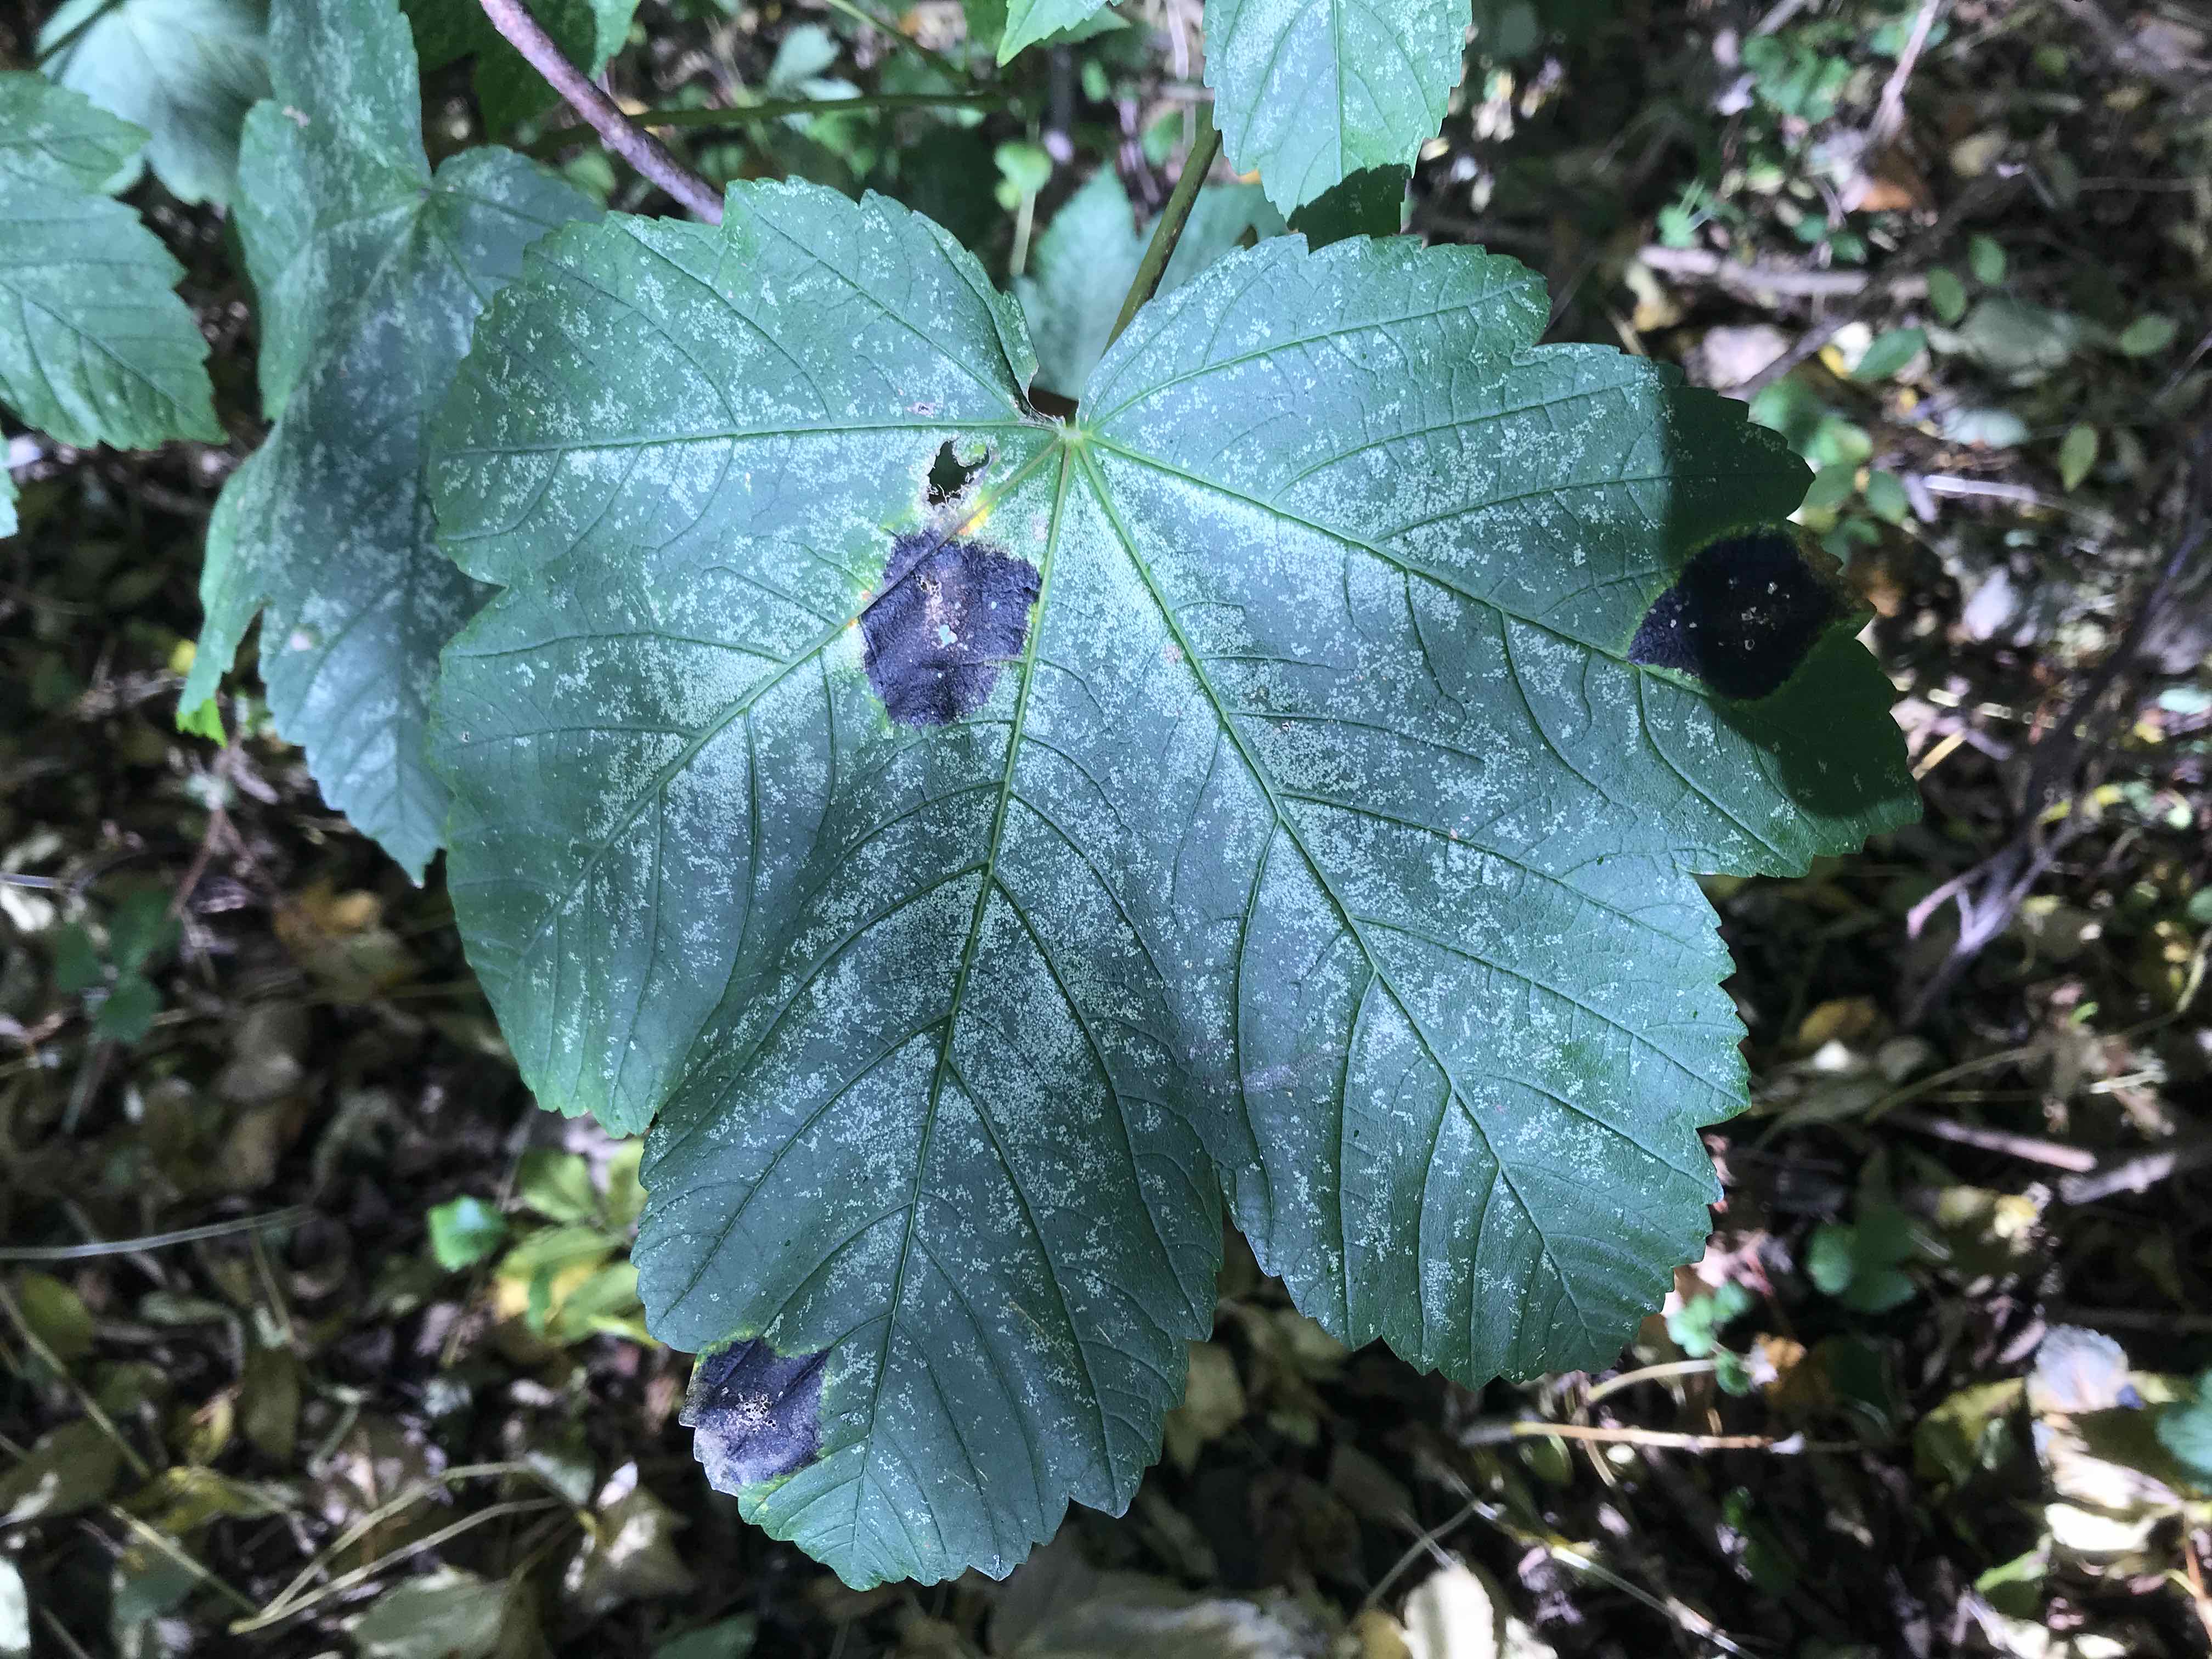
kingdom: Fungi
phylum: Ascomycota
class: Leotiomycetes
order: Rhytismatales
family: Rhytismataceae
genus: Rhytisma
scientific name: Rhytisma acerinum
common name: ahorn-rynkeplet
